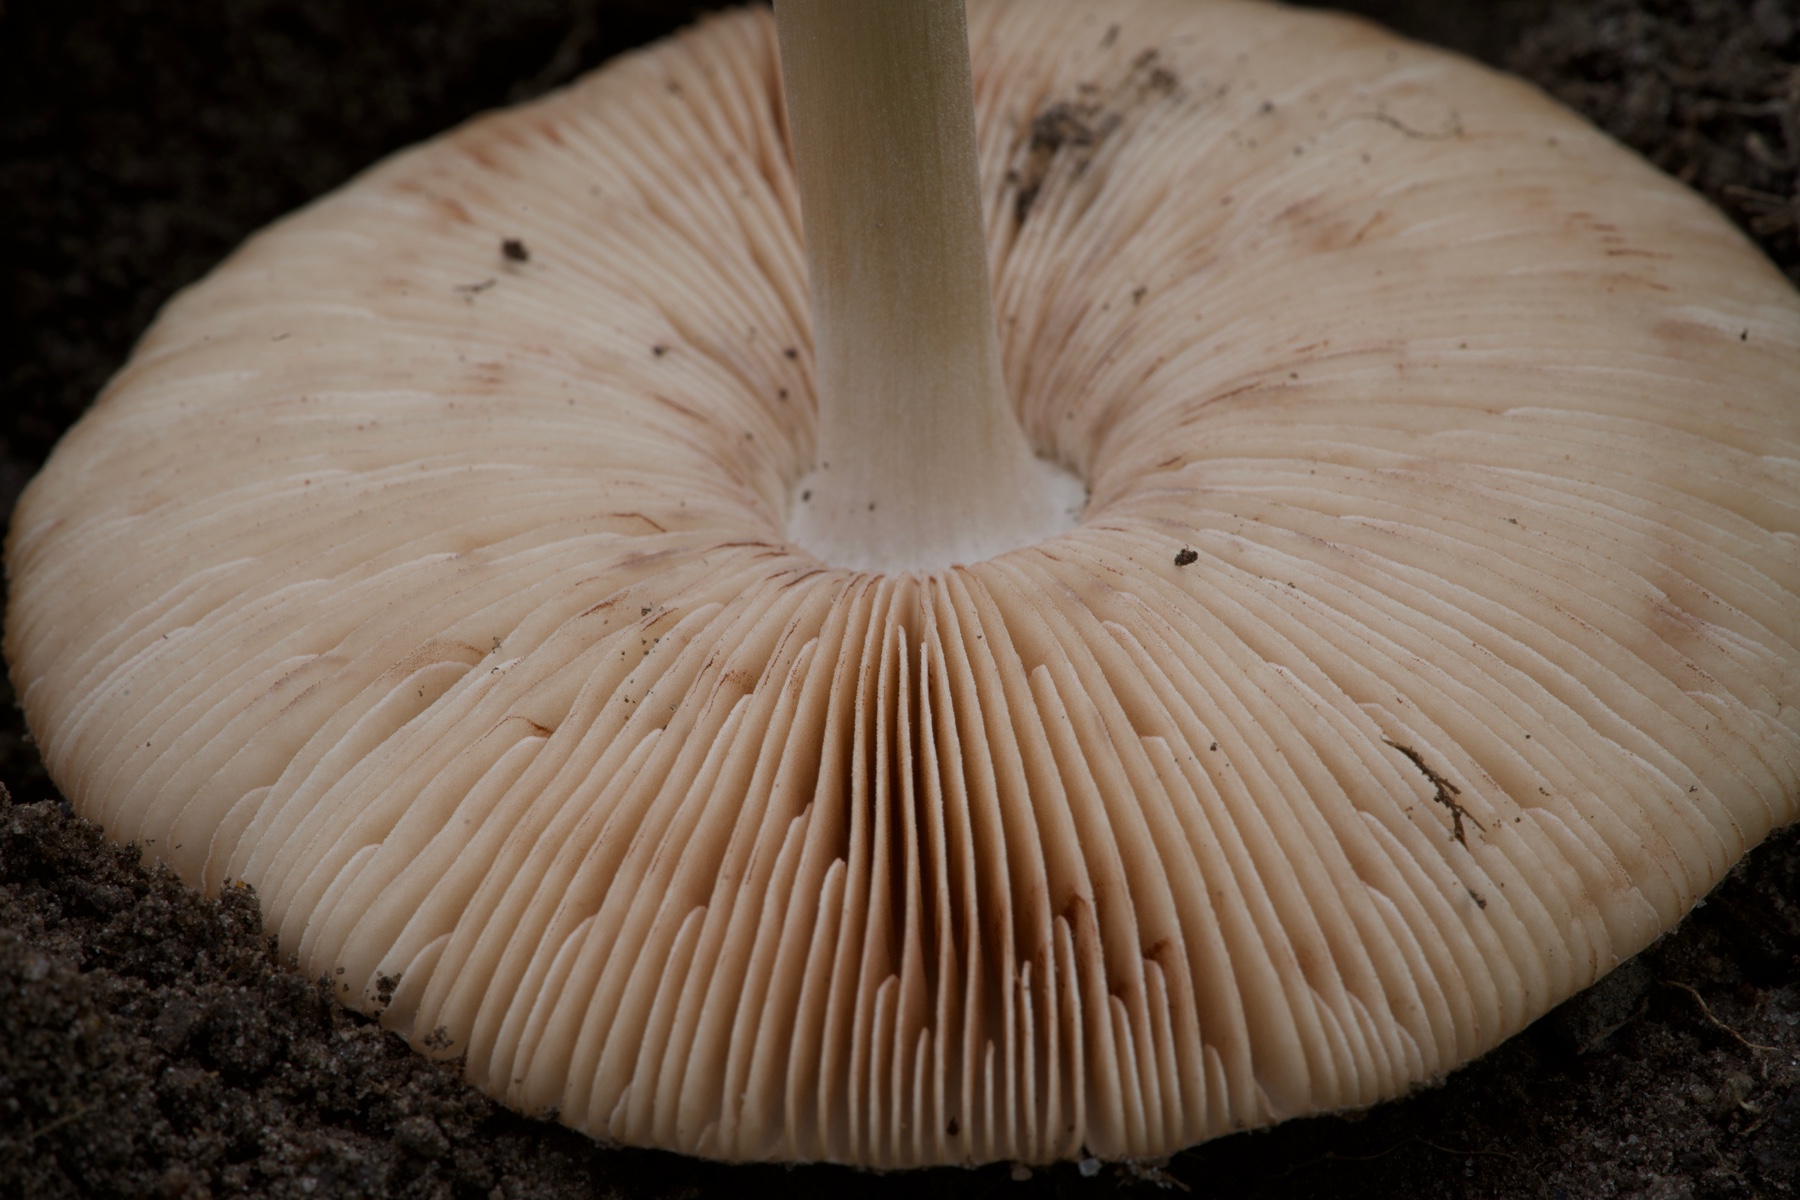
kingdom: Fungi
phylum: Basidiomycota
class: Agaricomycetes
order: Agaricales
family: Pluteaceae
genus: Volvopluteus
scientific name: Volvopluteus gloiocephalus
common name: høj posesvamp
